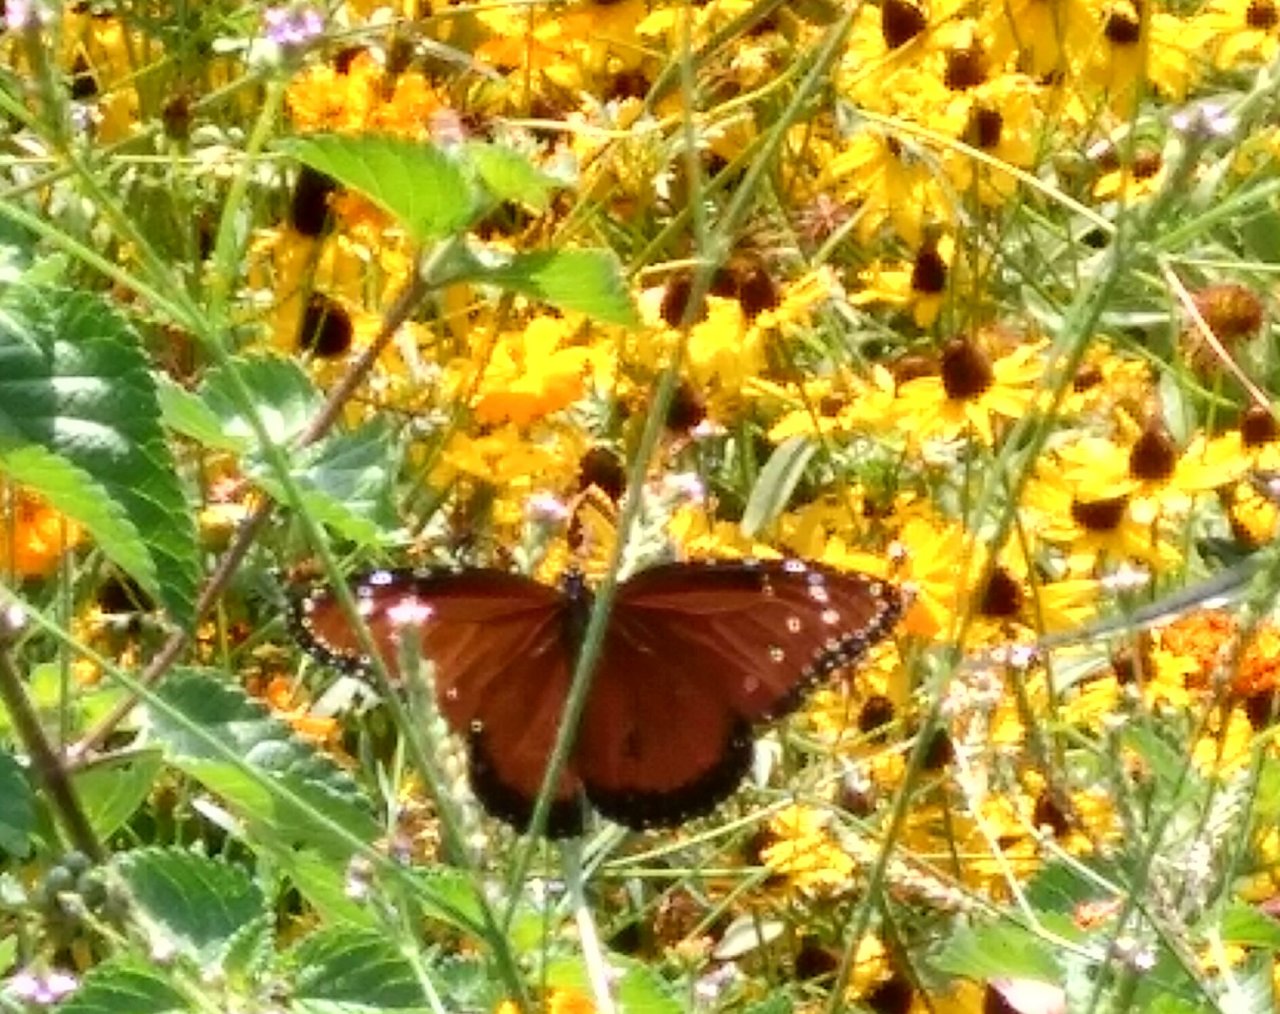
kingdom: Animalia
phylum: Arthropoda
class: Insecta
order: Lepidoptera
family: Nymphalidae
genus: Danaus
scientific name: Danaus gilippus
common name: Queen
